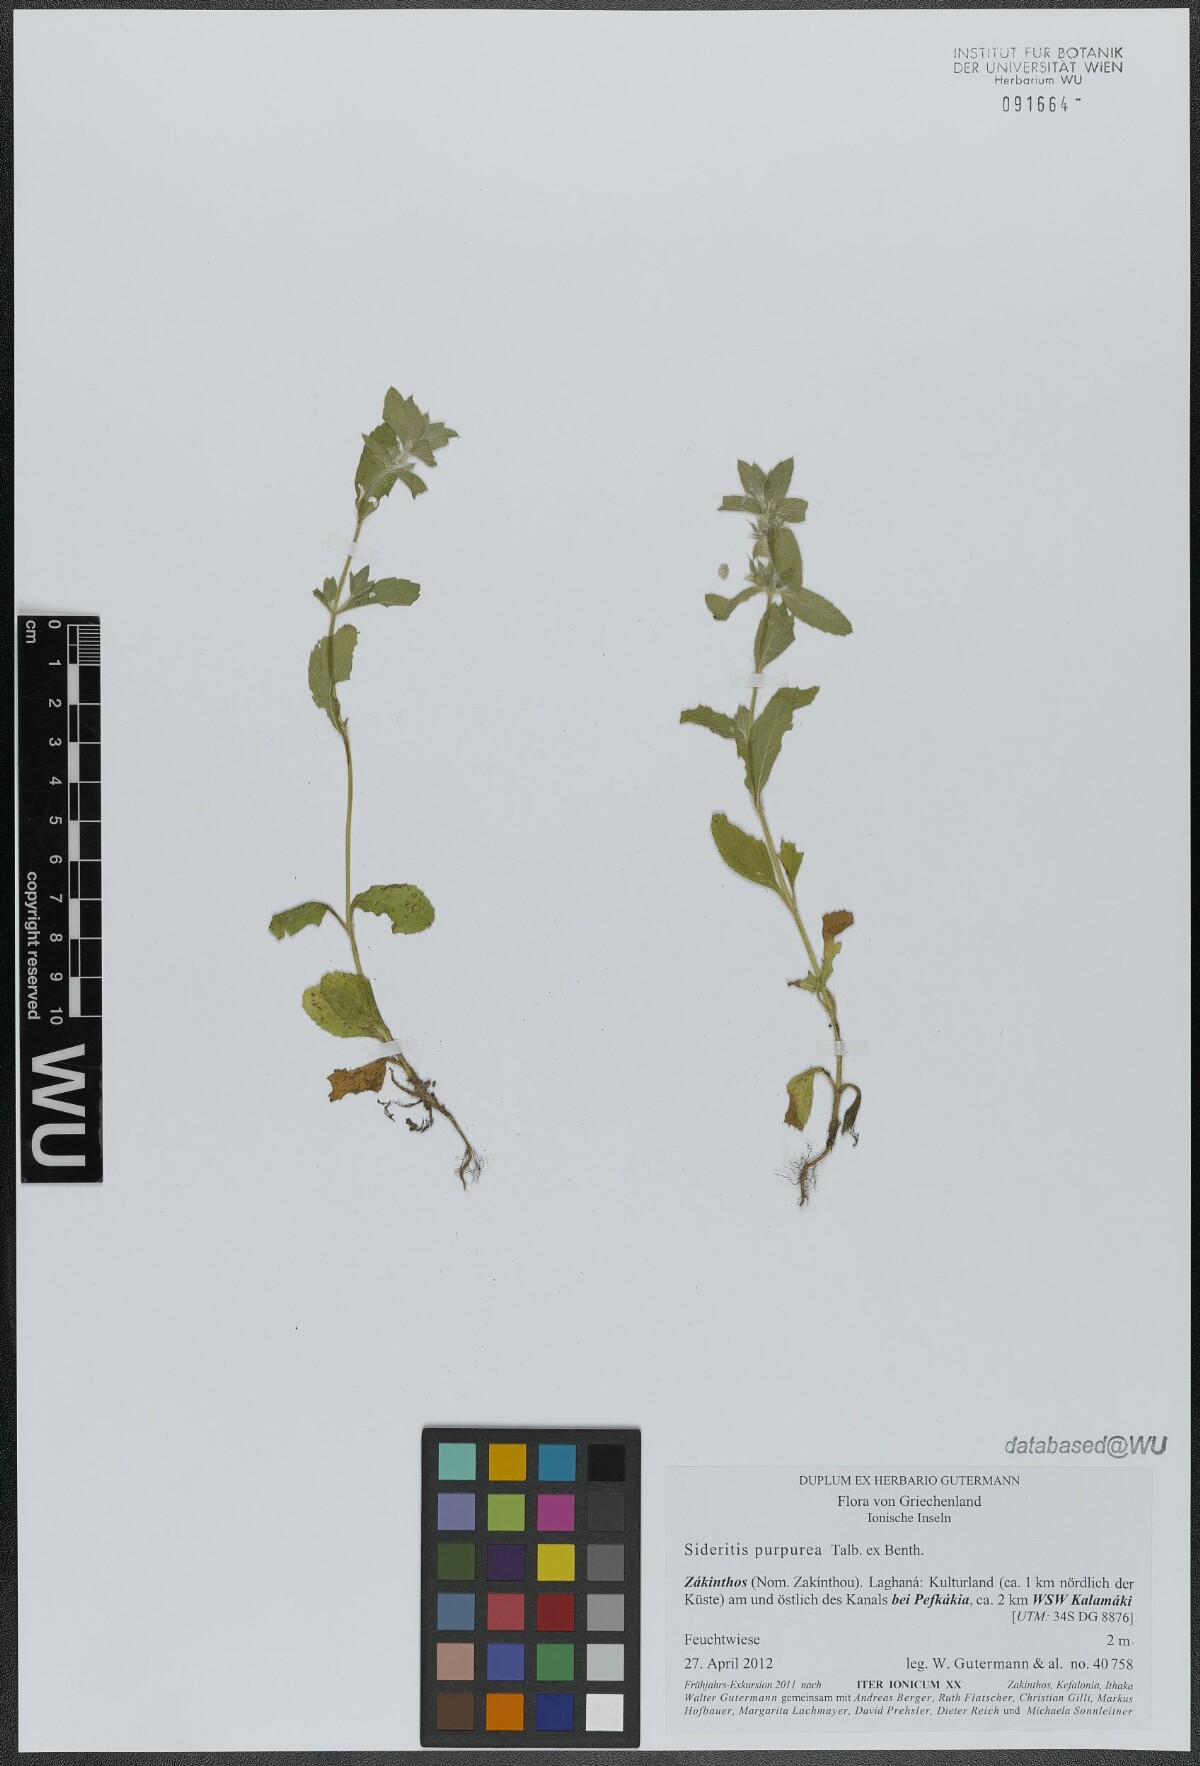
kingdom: Plantae
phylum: Tracheophyta
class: Magnoliopsida
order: Lamiales
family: Lamiaceae
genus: Sideritis
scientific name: Sideritis romana
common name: Simplebeak ironwort
